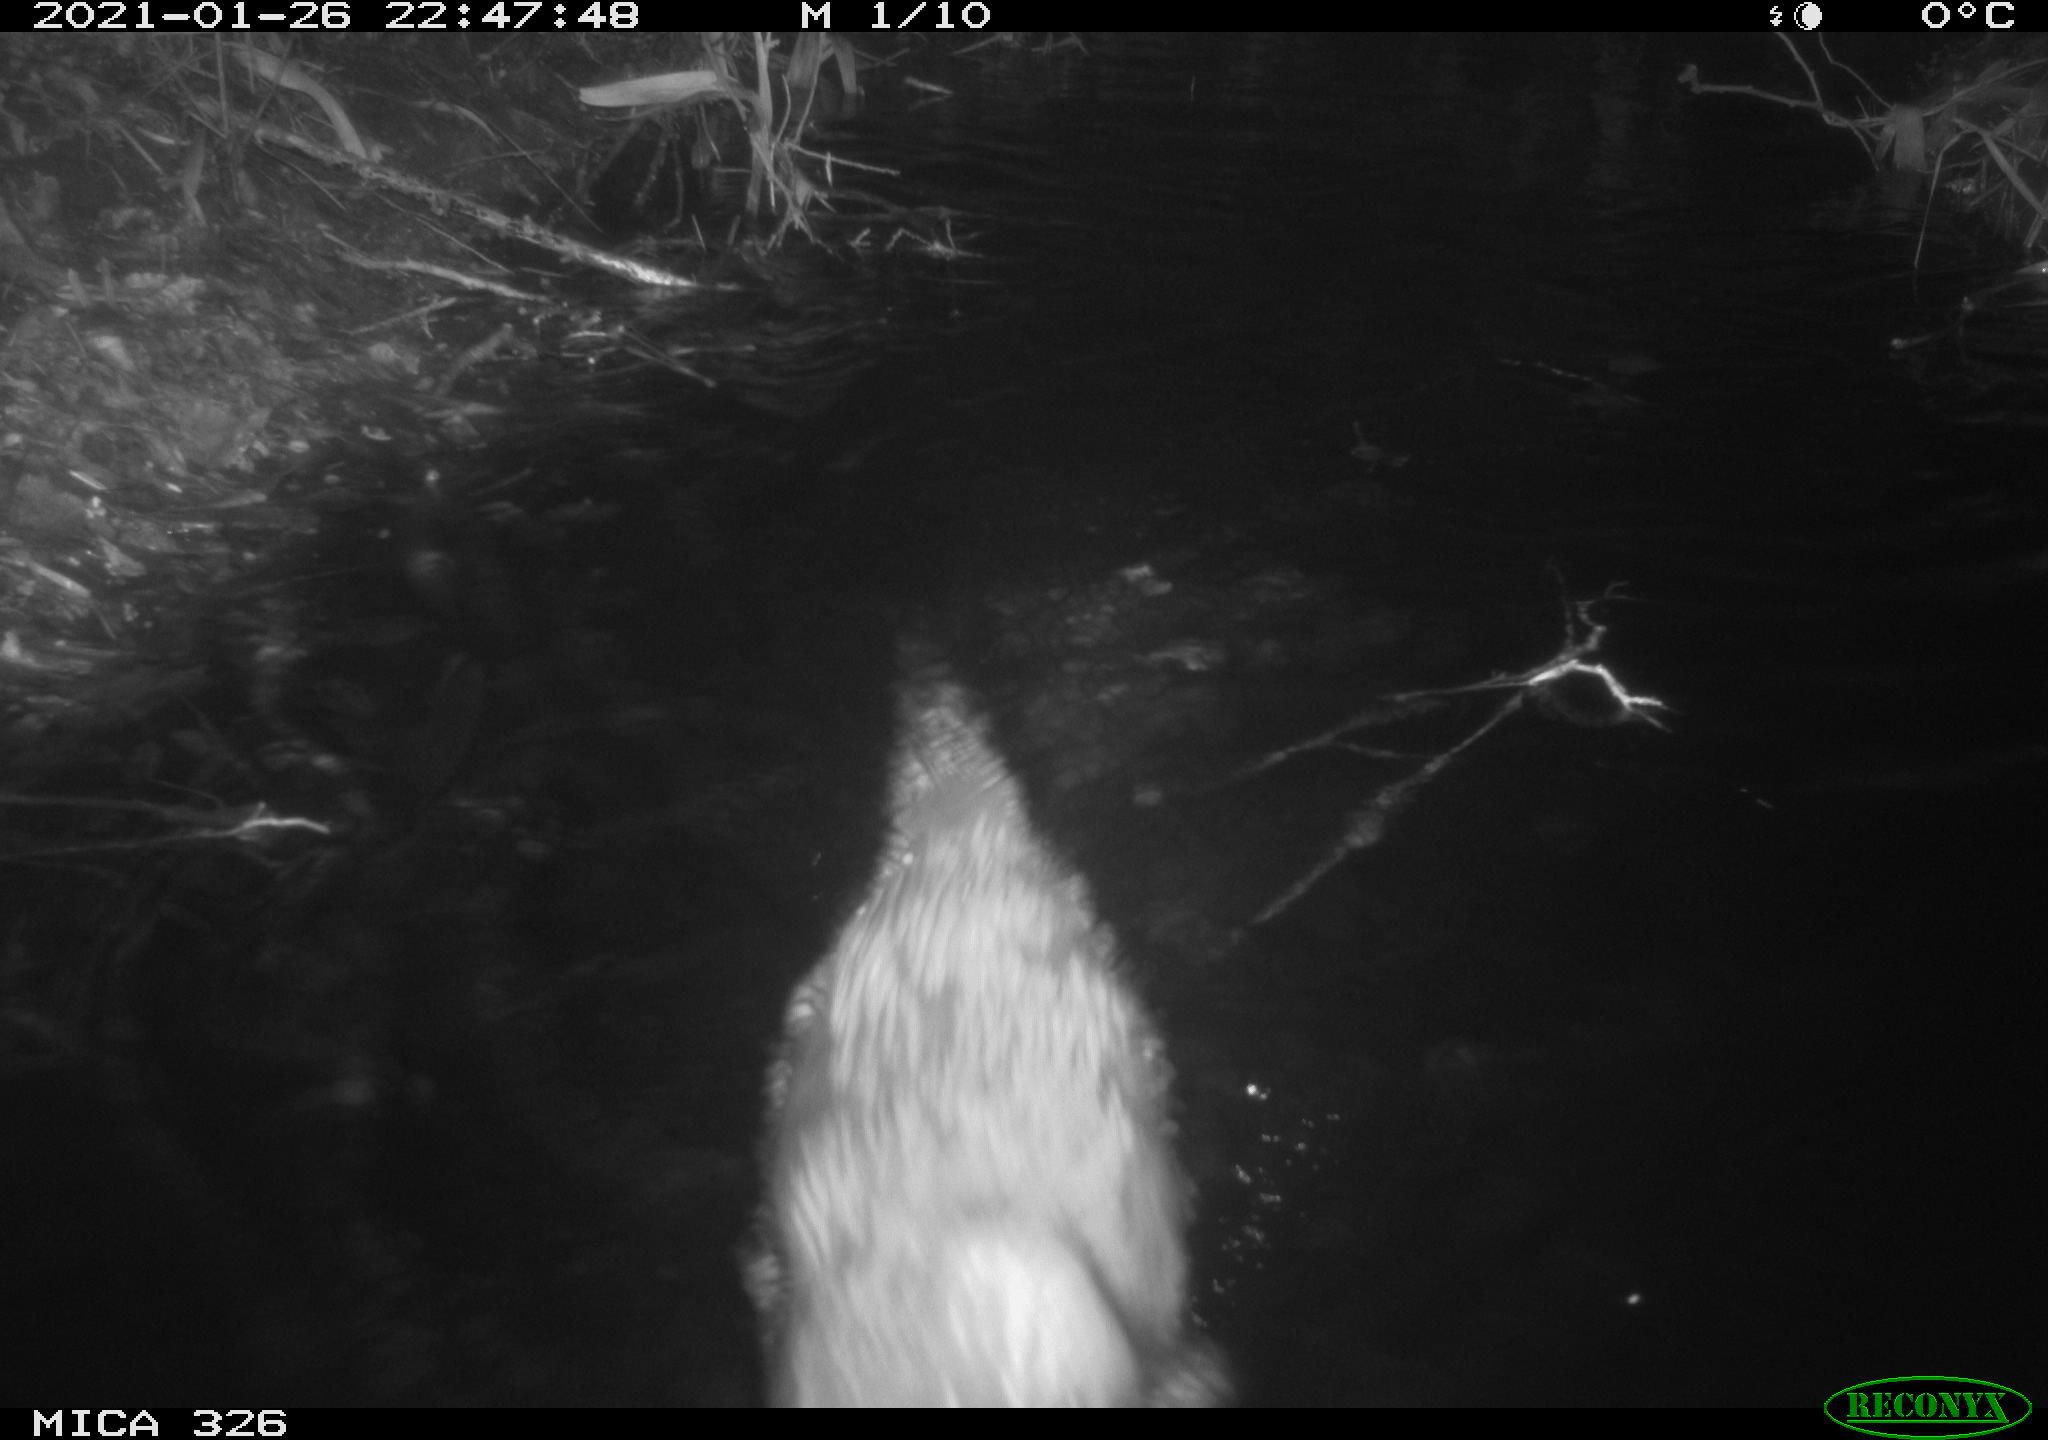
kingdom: Animalia
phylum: Chordata
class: Mammalia
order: Carnivora
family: Mustelidae
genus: Lutra
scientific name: Lutra lutra
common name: European otter
